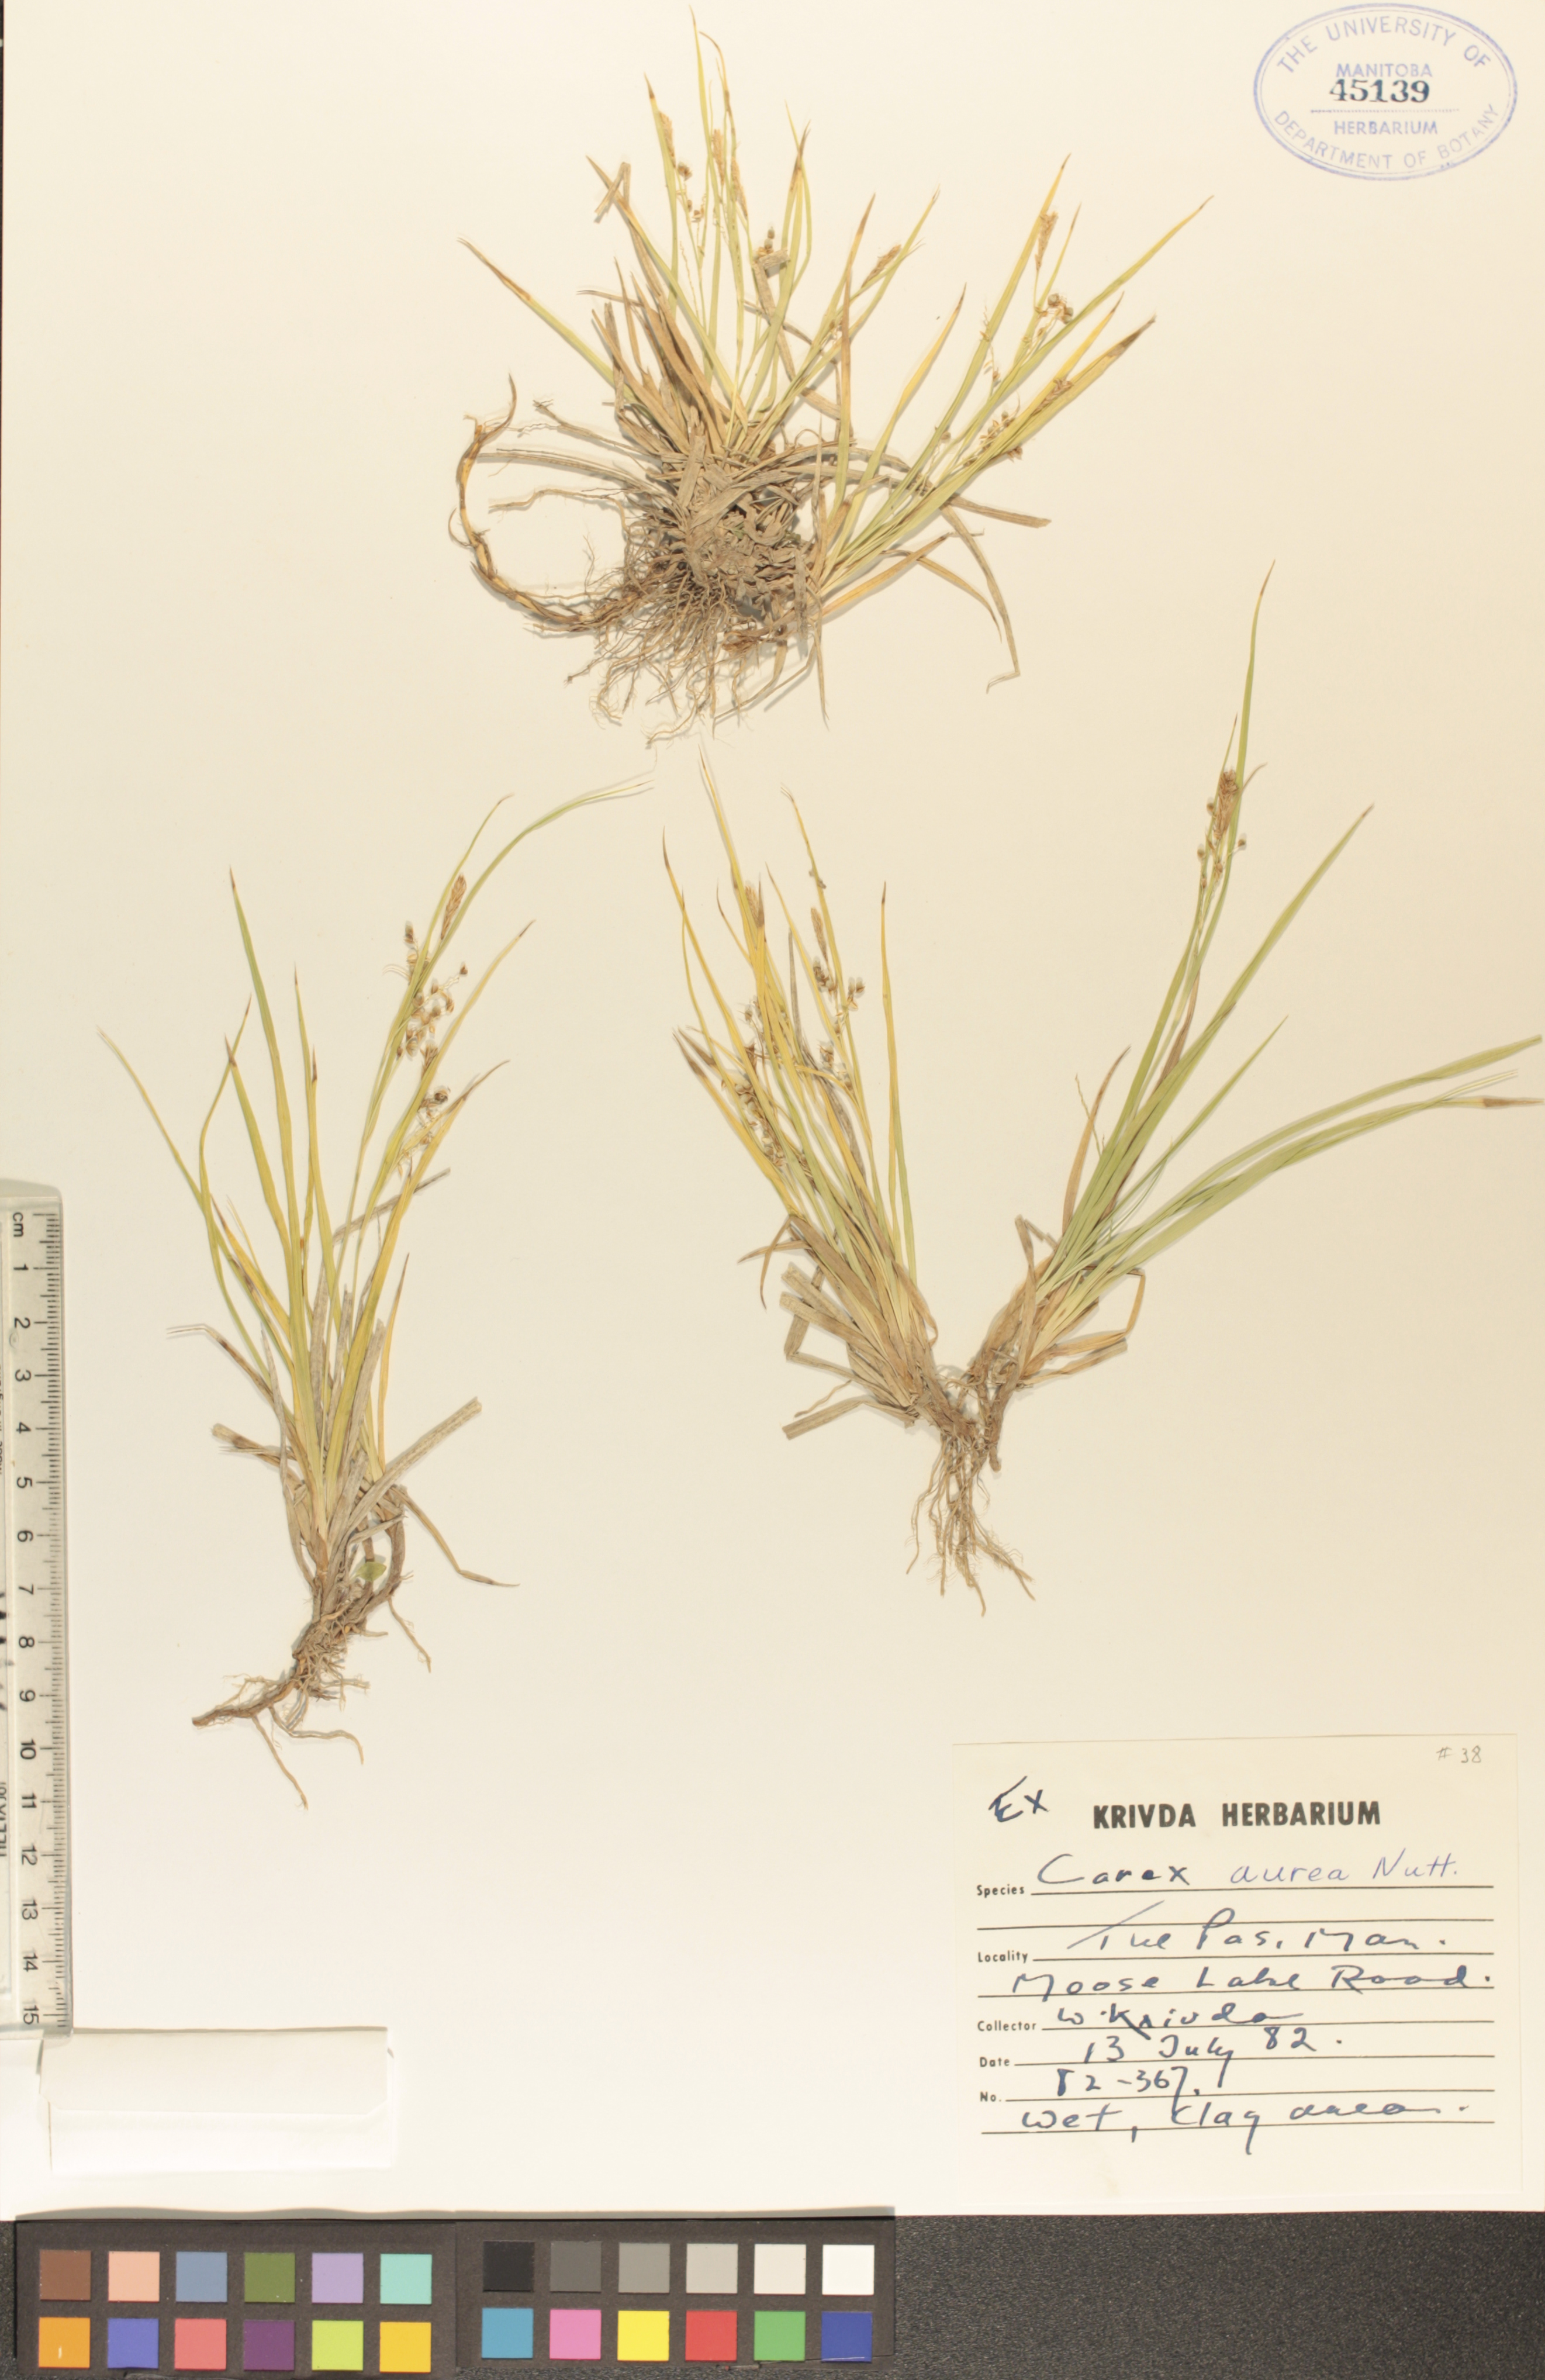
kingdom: Plantae
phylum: Tracheophyta
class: Liliopsida
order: Poales
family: Cyperaceae
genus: Carex
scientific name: Carex aurea
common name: Golden sedge
